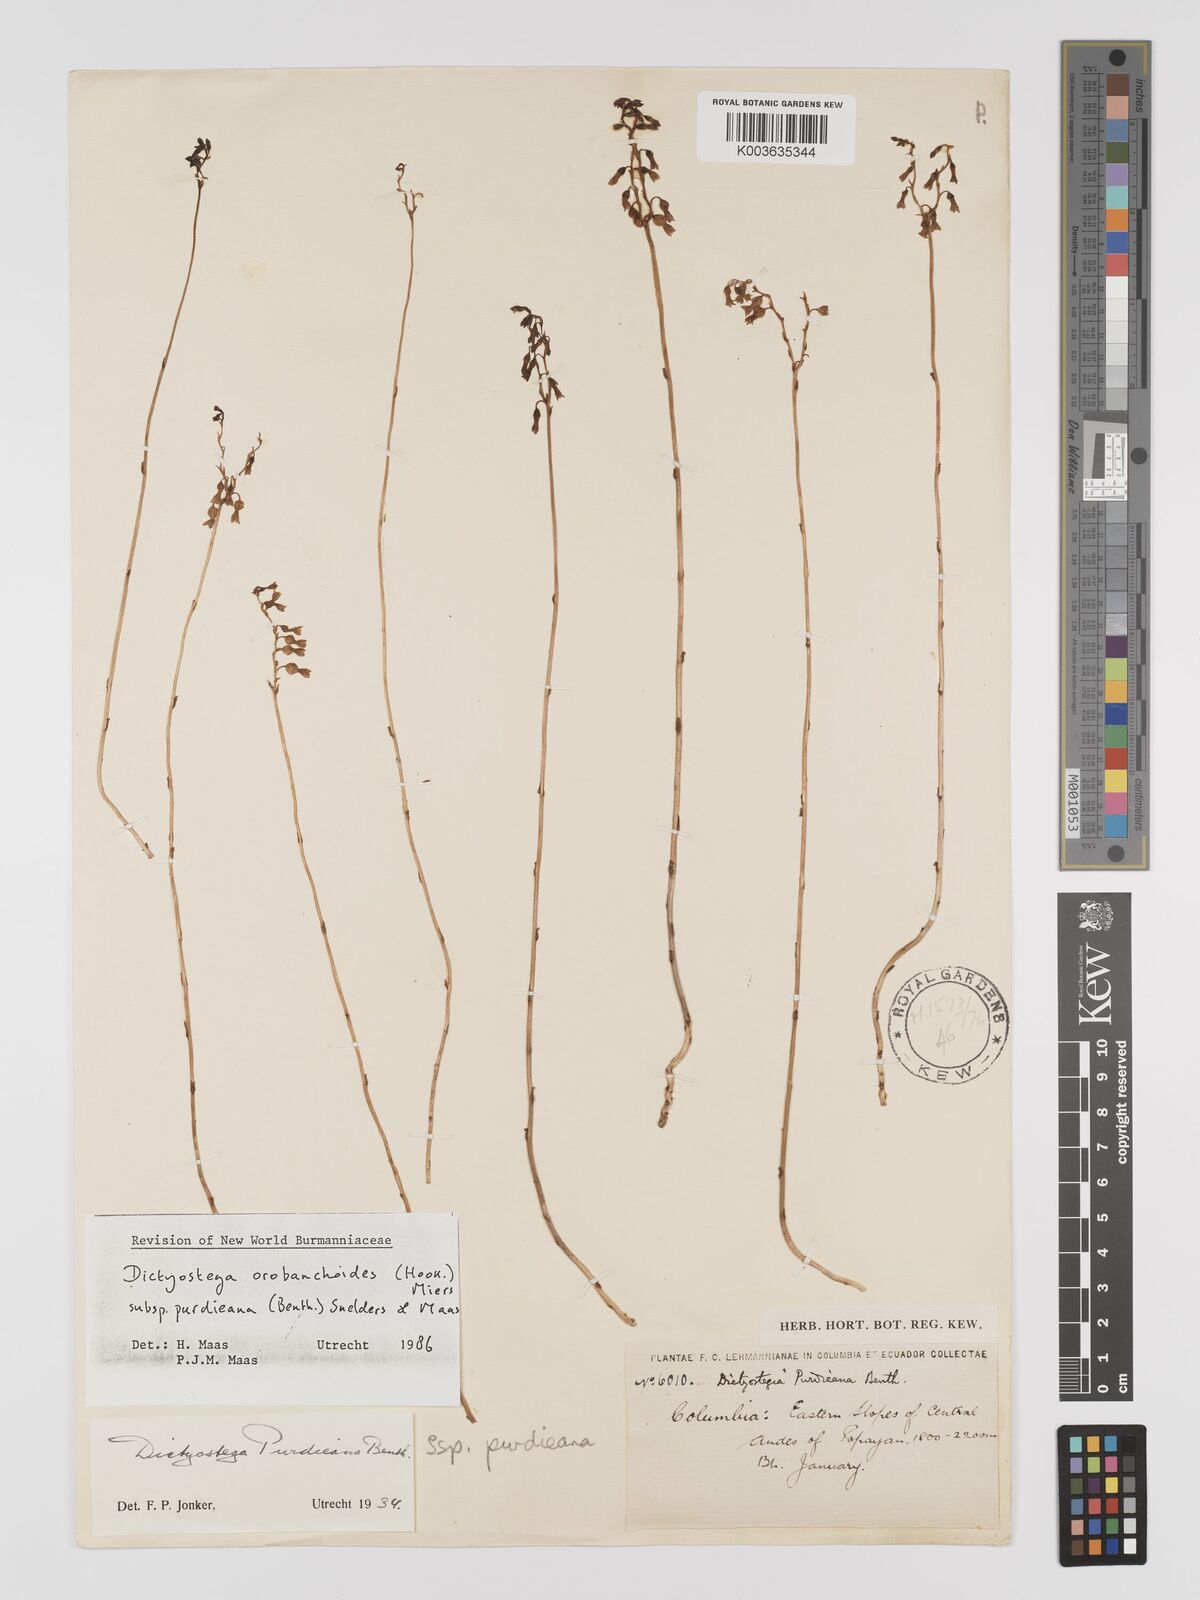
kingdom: Plantae
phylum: Tracheophyta
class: Liliopsida
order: Dioscoreales
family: Burmanniaceae
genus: Dictyostega
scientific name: Dictyostega orobanchoides
